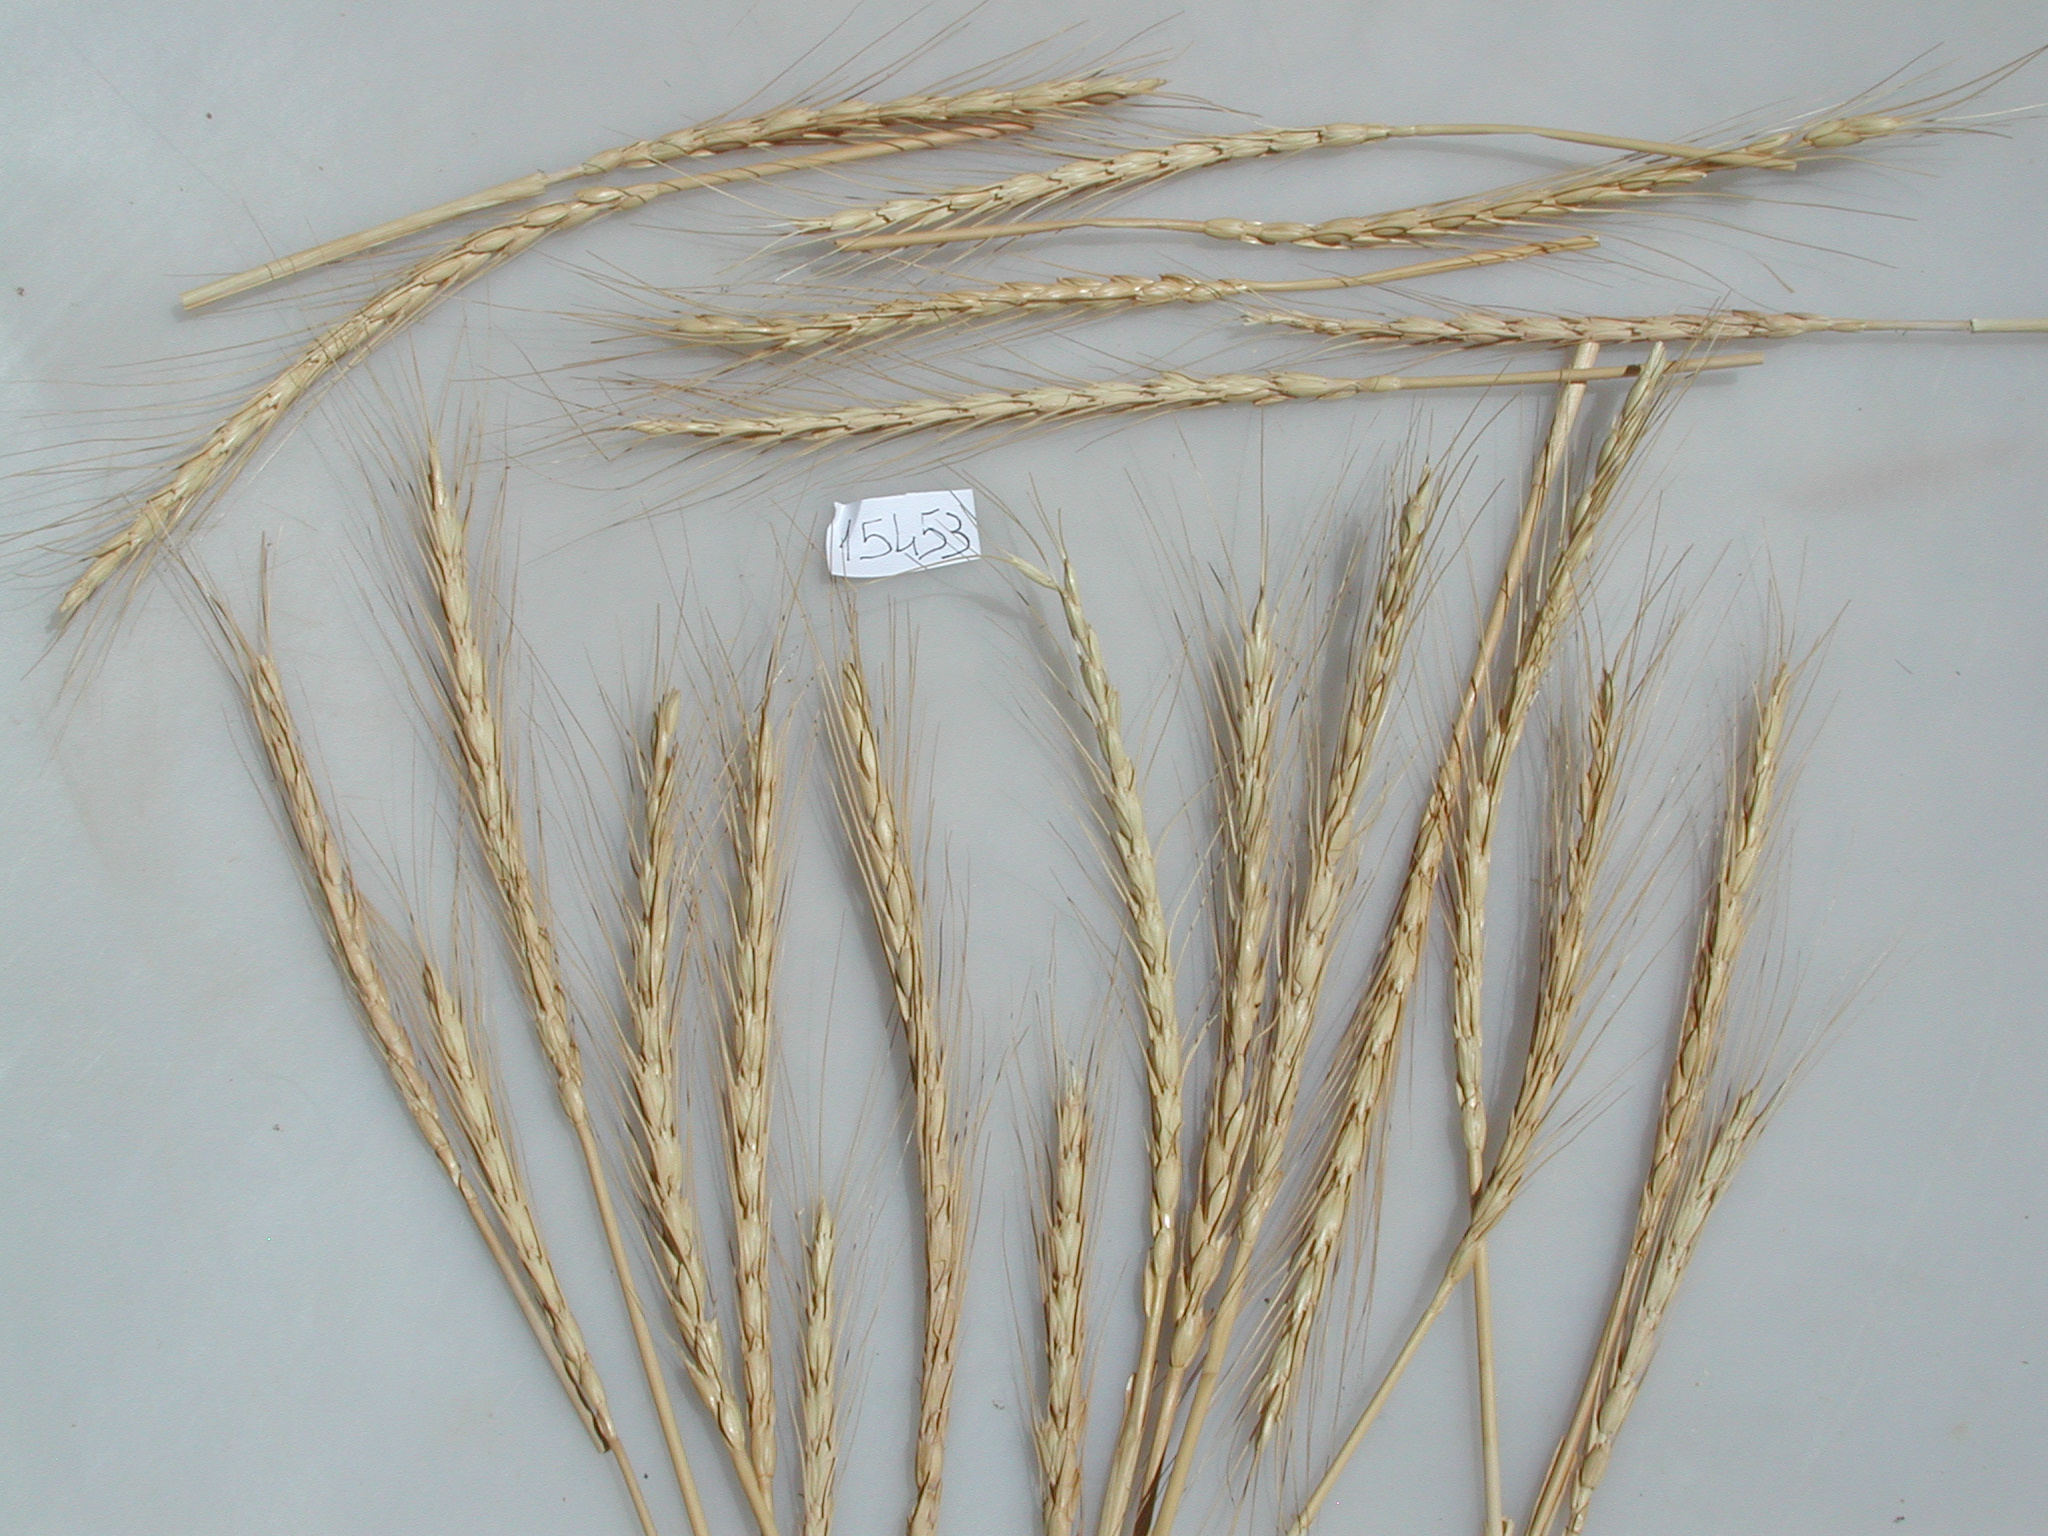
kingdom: Plantae
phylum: Tracheophyta
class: Liliopsida
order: Poales
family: Poaceae
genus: Triticum
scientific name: Triticum aestivum
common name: Common wheat
